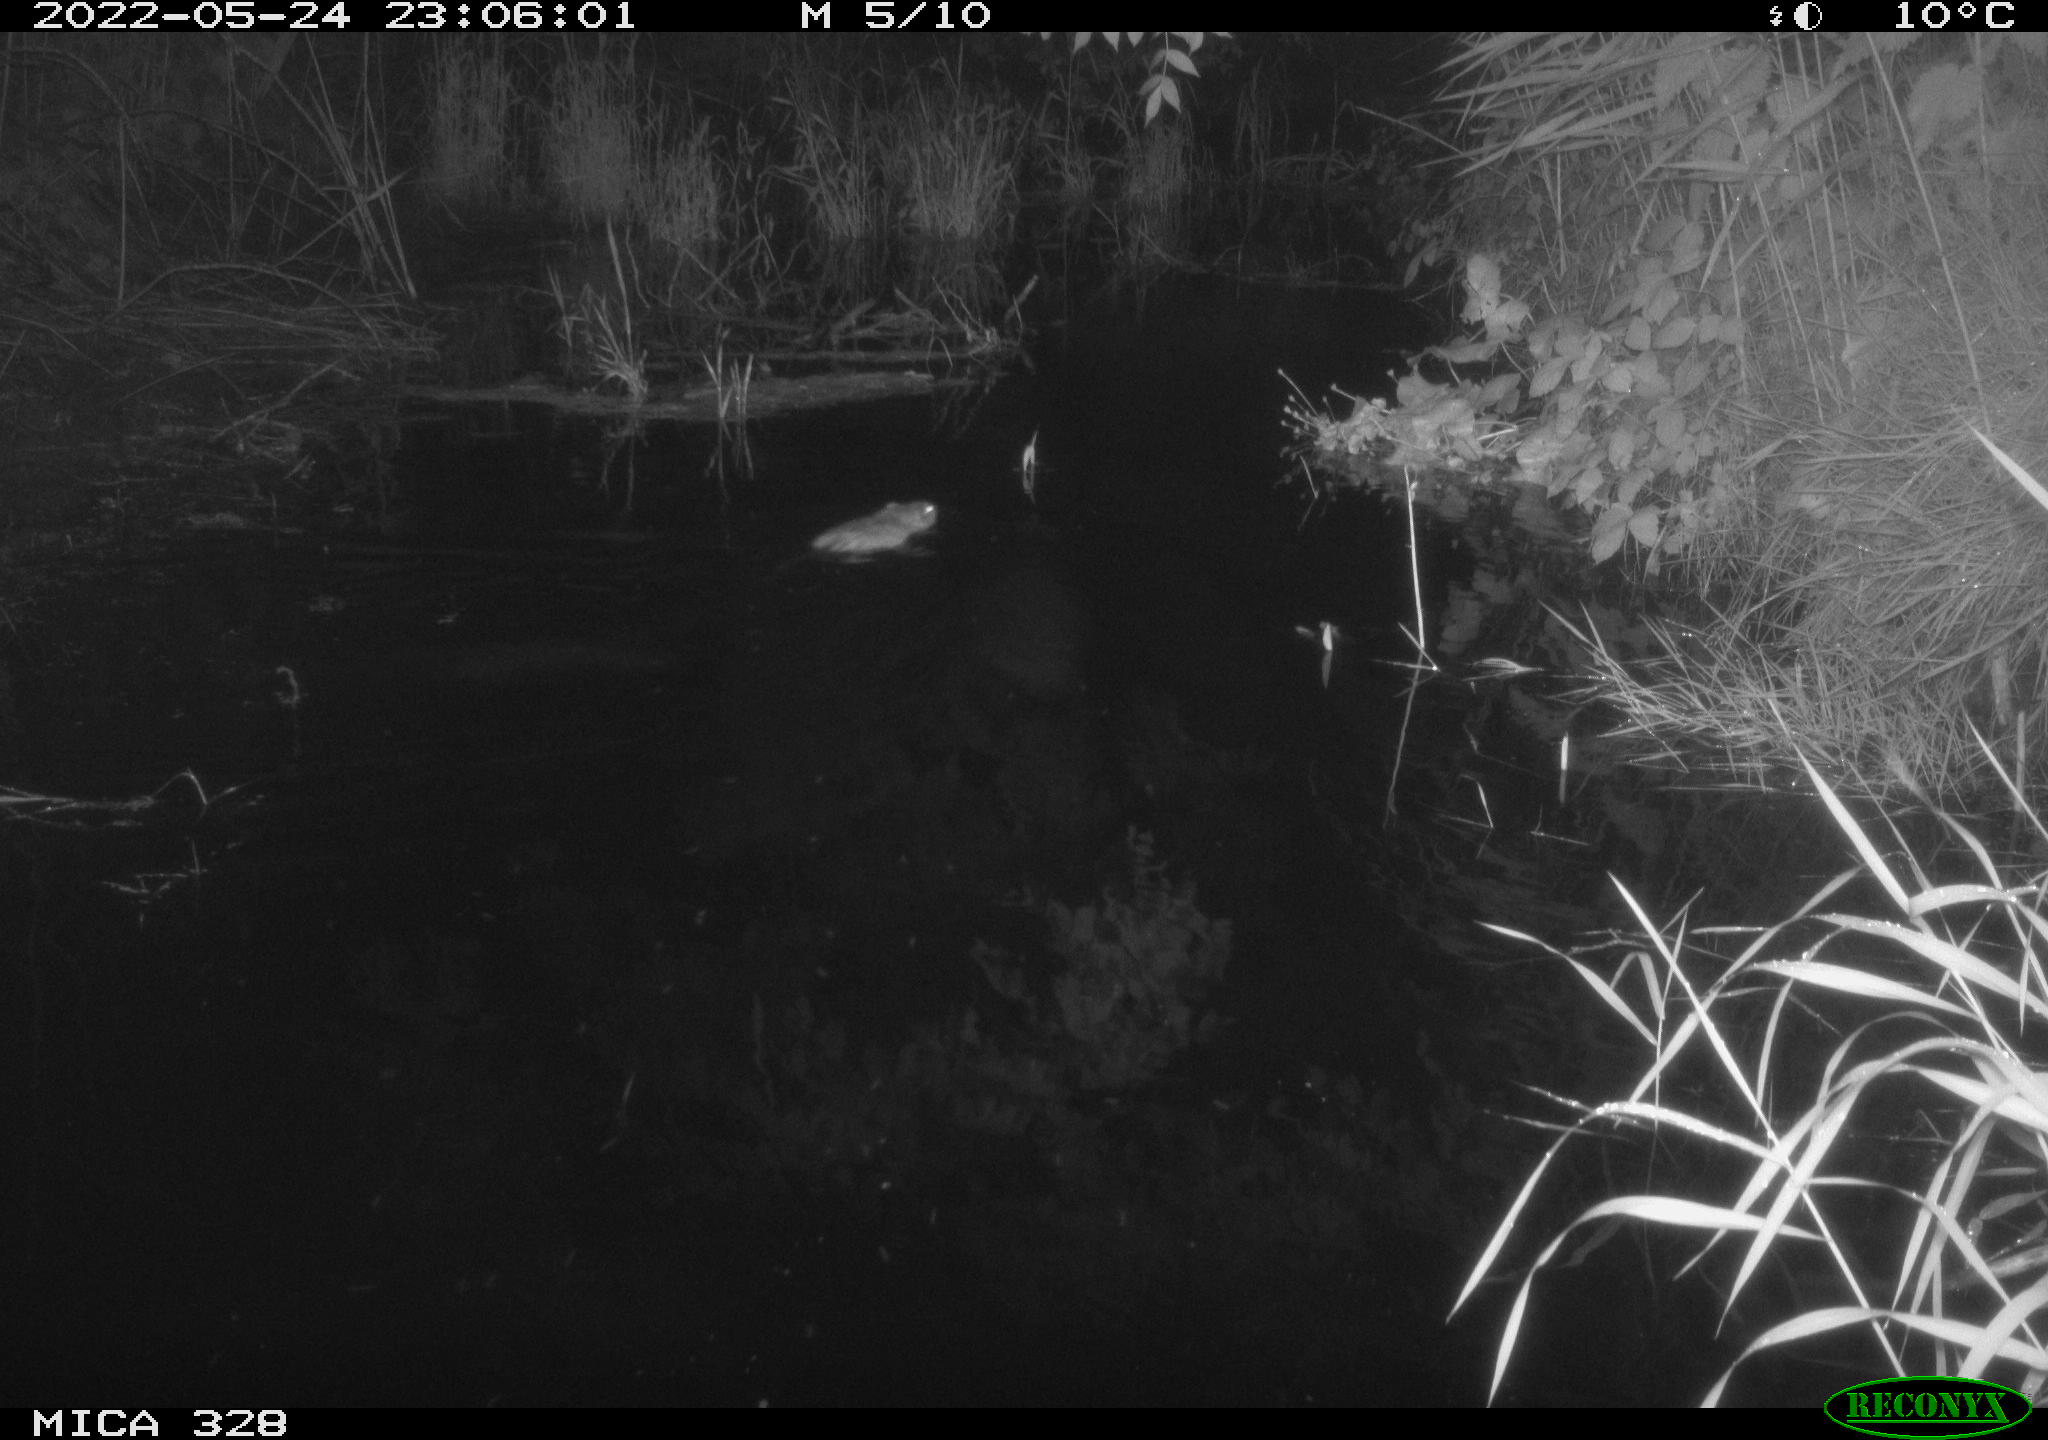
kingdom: Animalia
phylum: Chordata
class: Mammalia
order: Rodentia
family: Cricetidae
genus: Ondatra
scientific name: Ondatra zibethicus
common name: Muskrat
